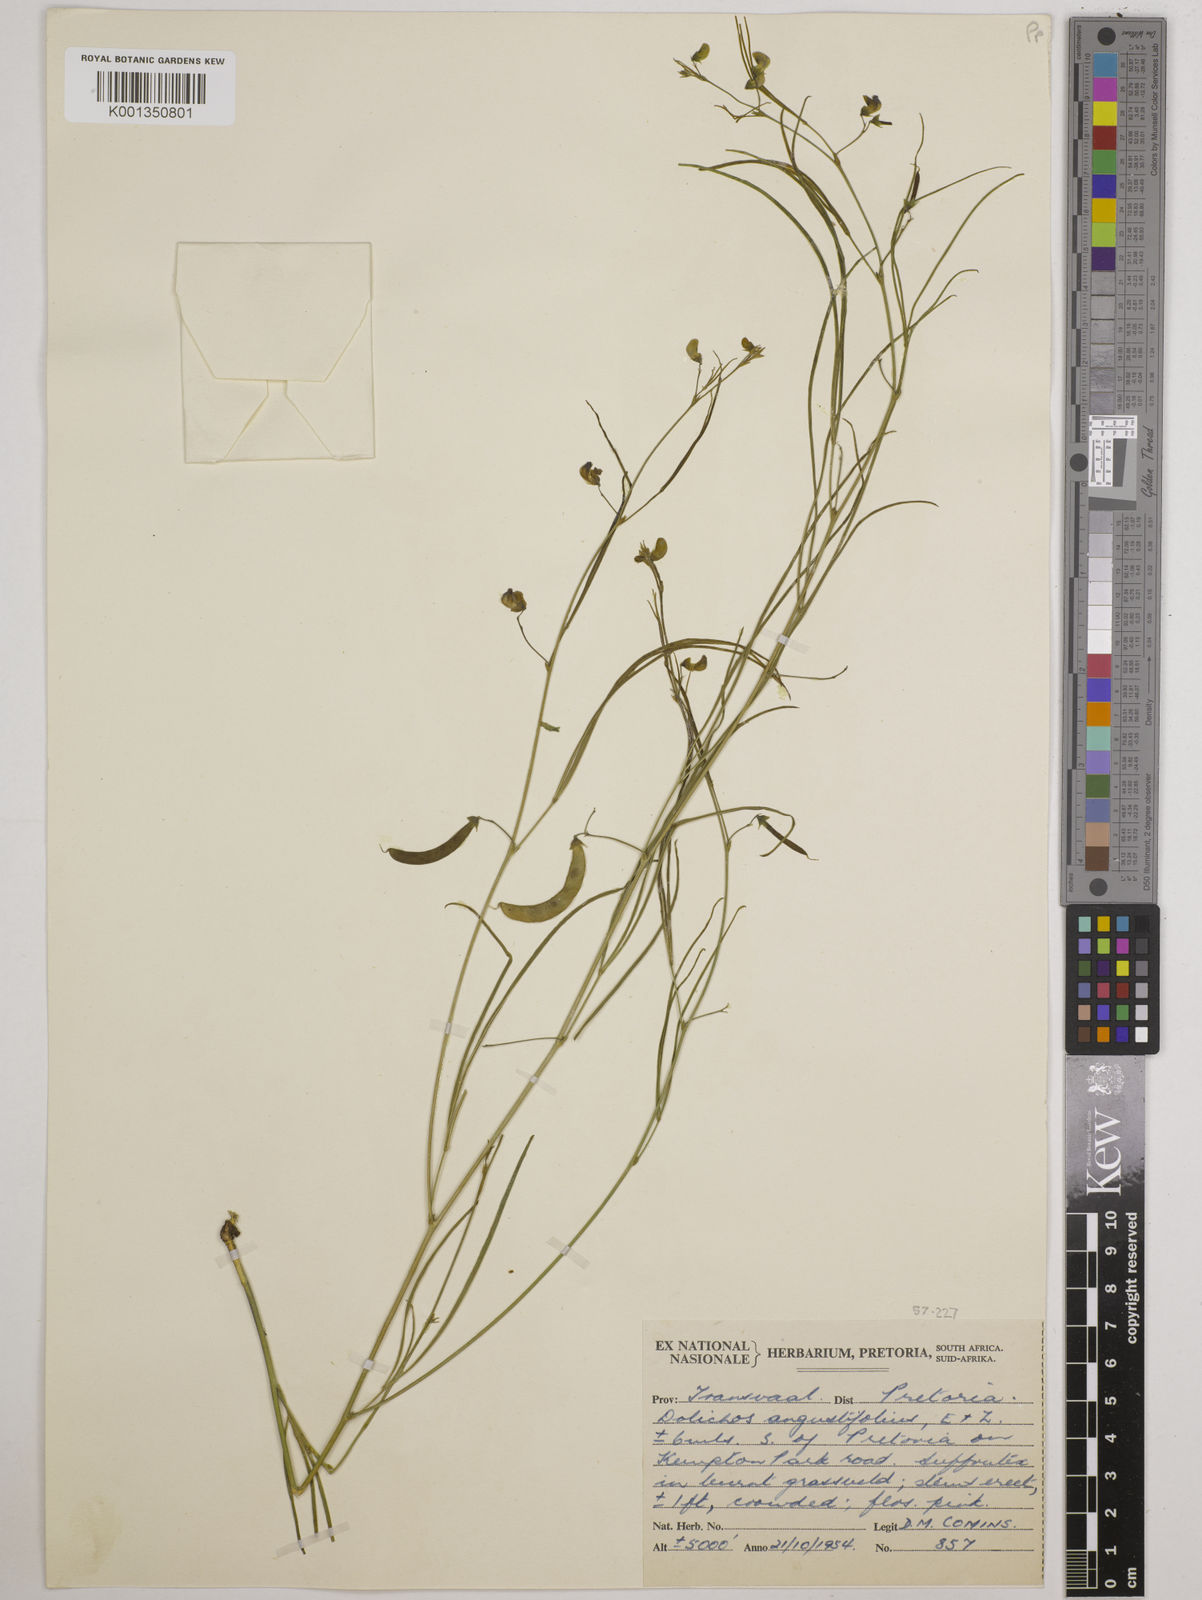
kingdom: Plantae
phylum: Tracheophyta
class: Magnoliopsida
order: Fabales
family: Fabaceae
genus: Dolichos
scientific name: Dolichos
